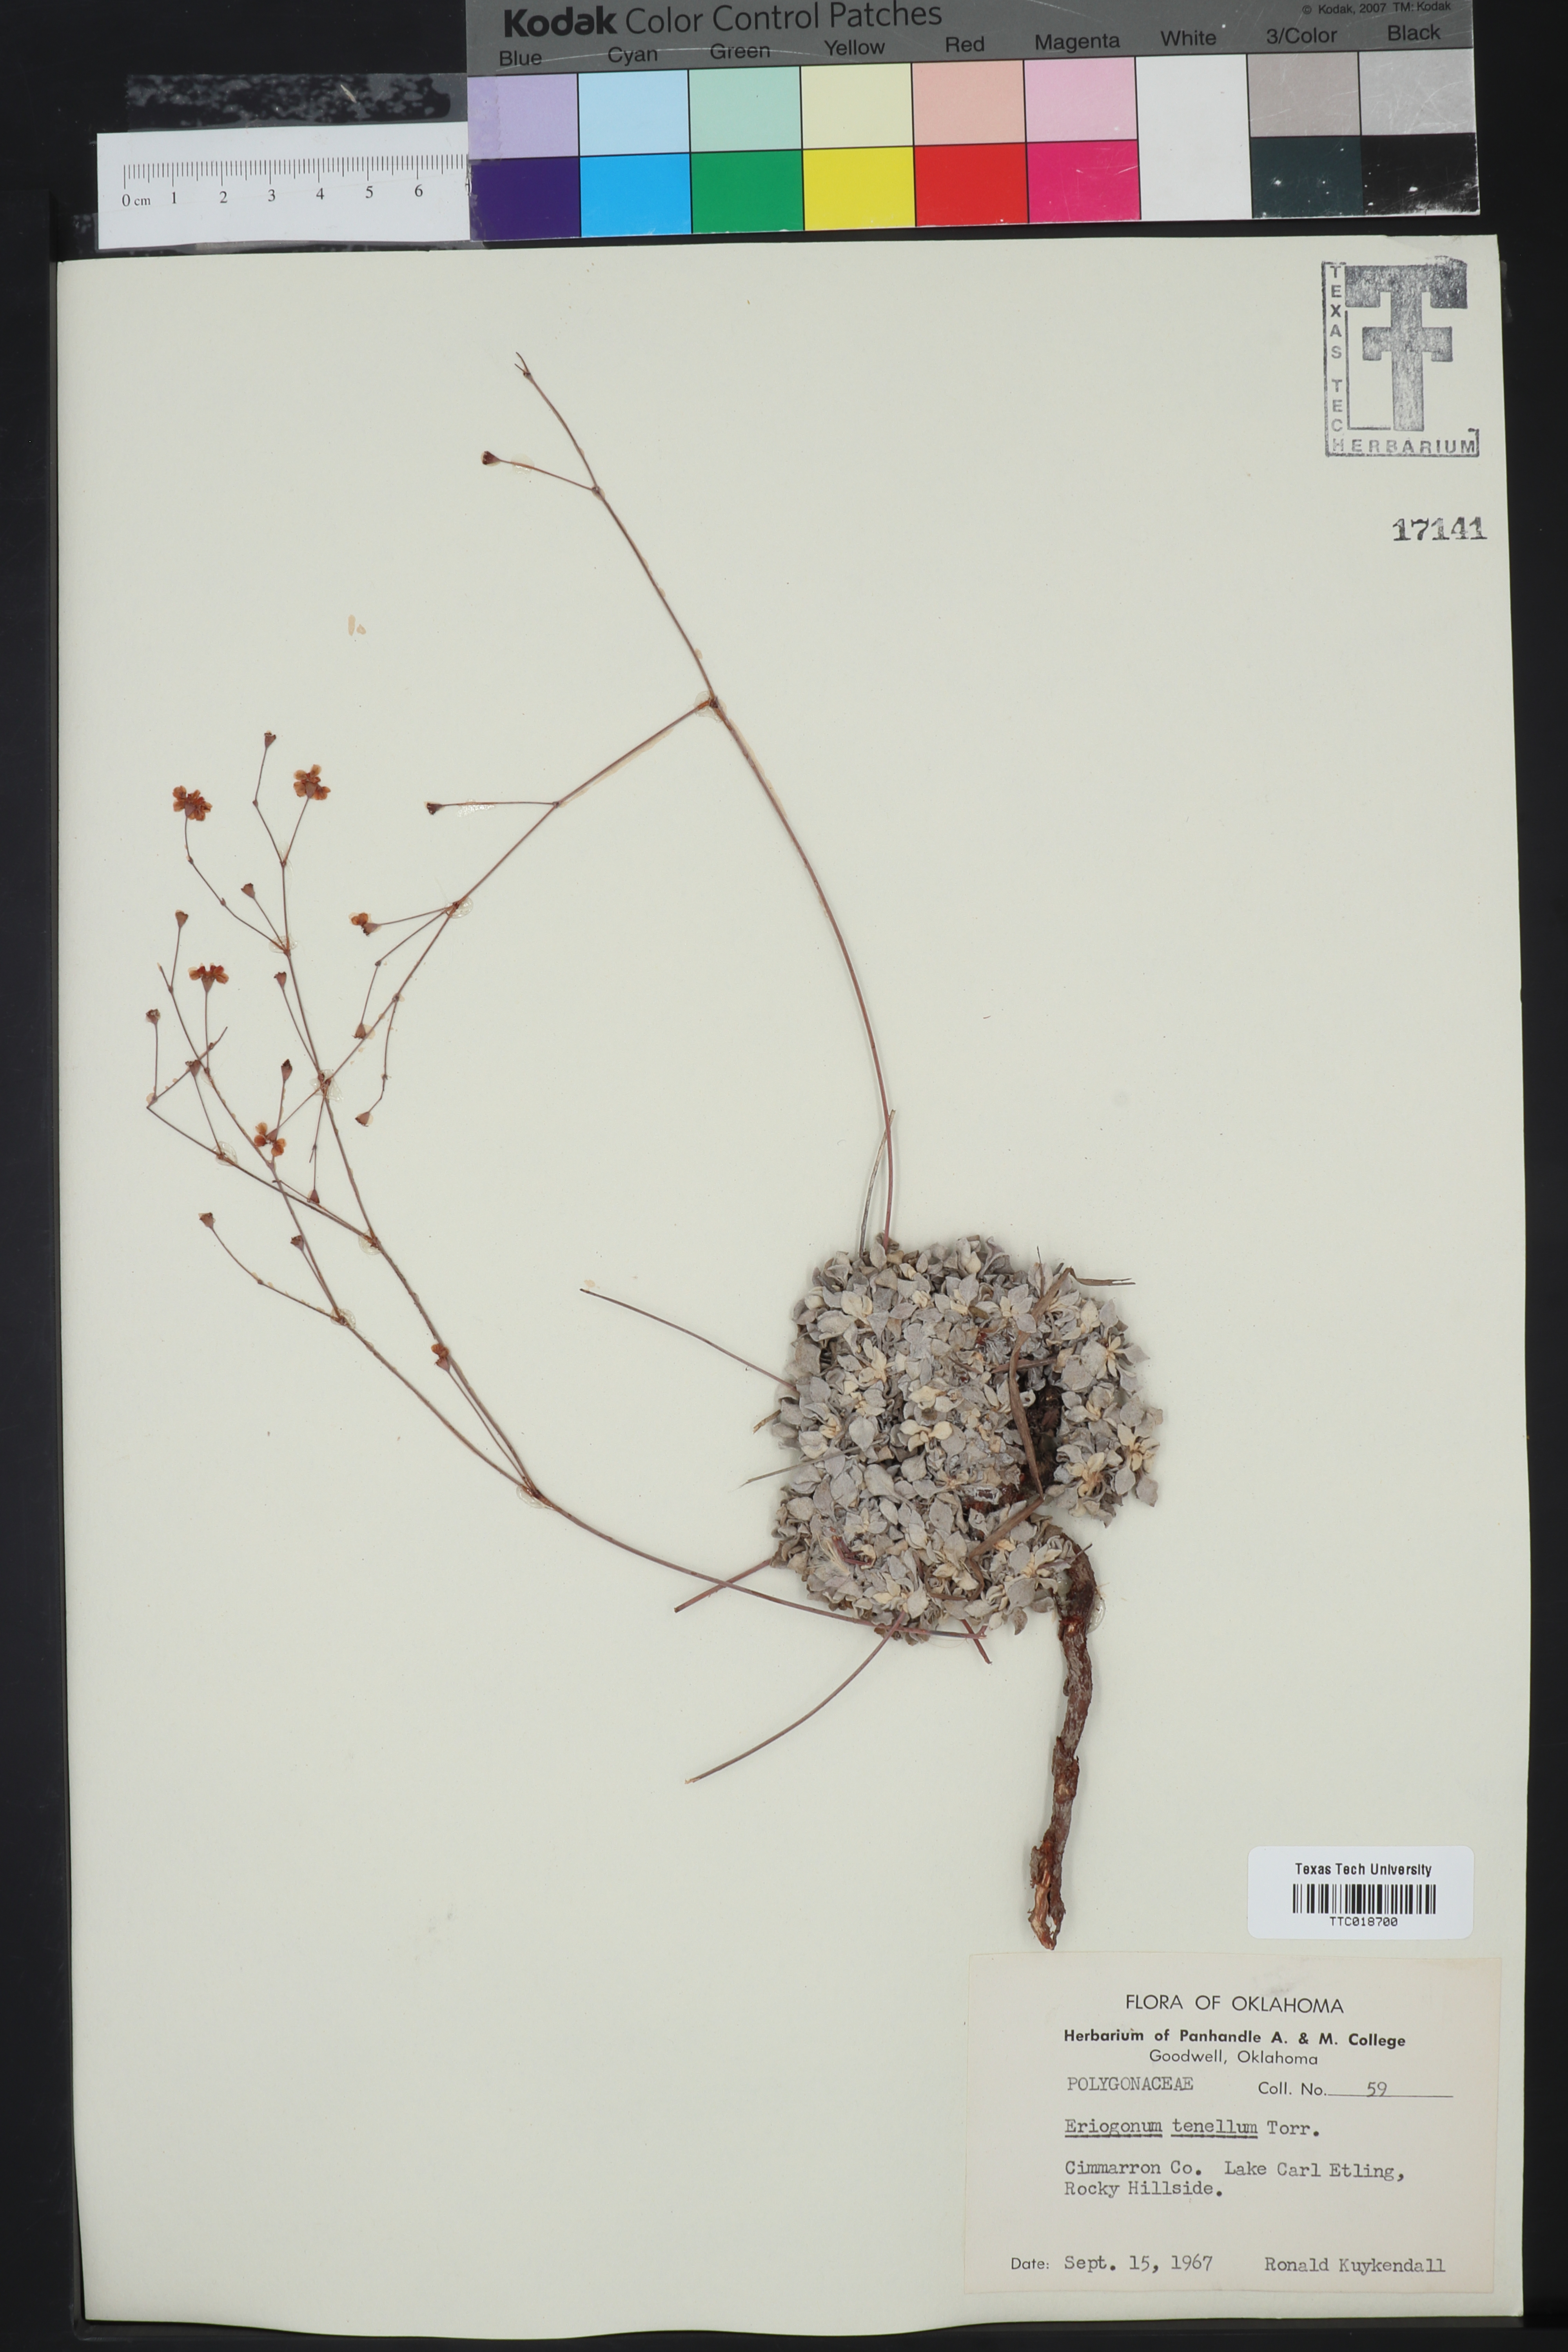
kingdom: Plantae
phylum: Tracheophyta
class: Magnoliopsida
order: Caryophyllales
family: Polygonaceae
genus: Eriogonum
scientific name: Eriogonum tenellum
